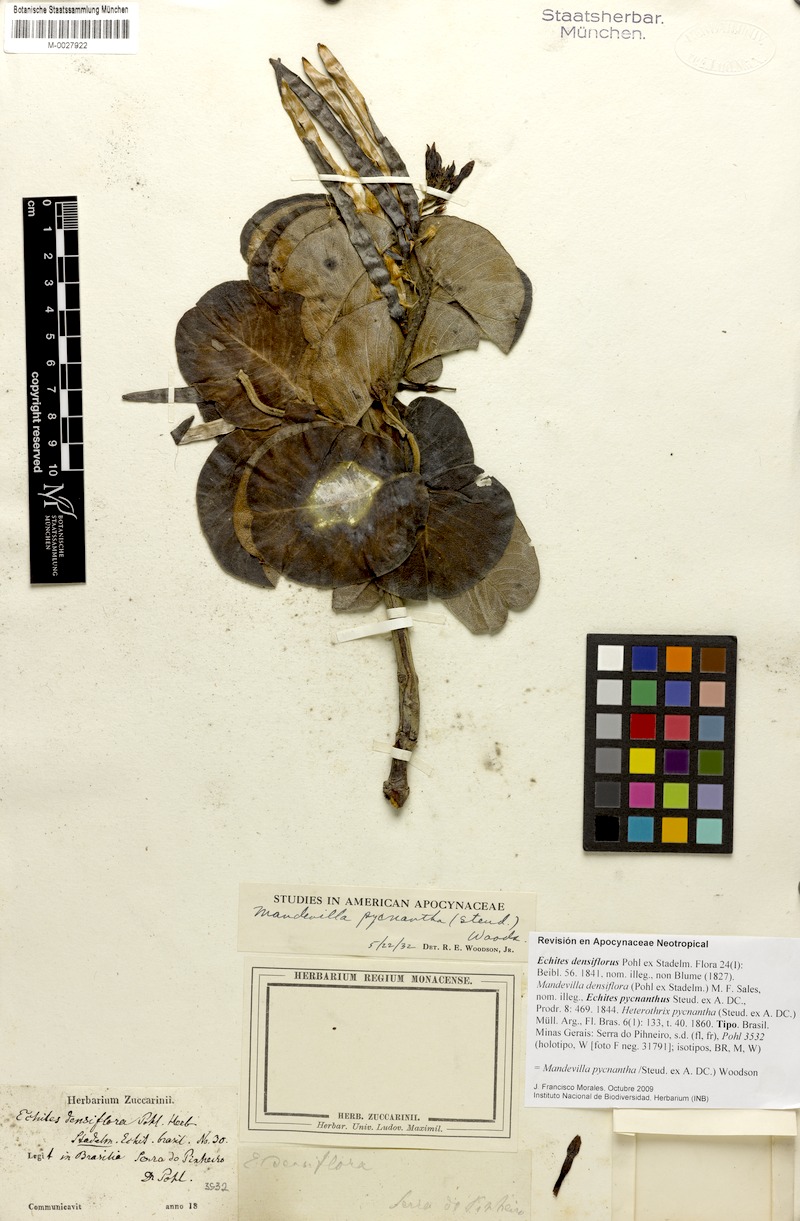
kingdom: Plantae
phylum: Tracheophyta
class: Magnoliopsida
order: Gentianales
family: Apocynaceae
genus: Mandevilla
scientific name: Mandevilla pycnantha
